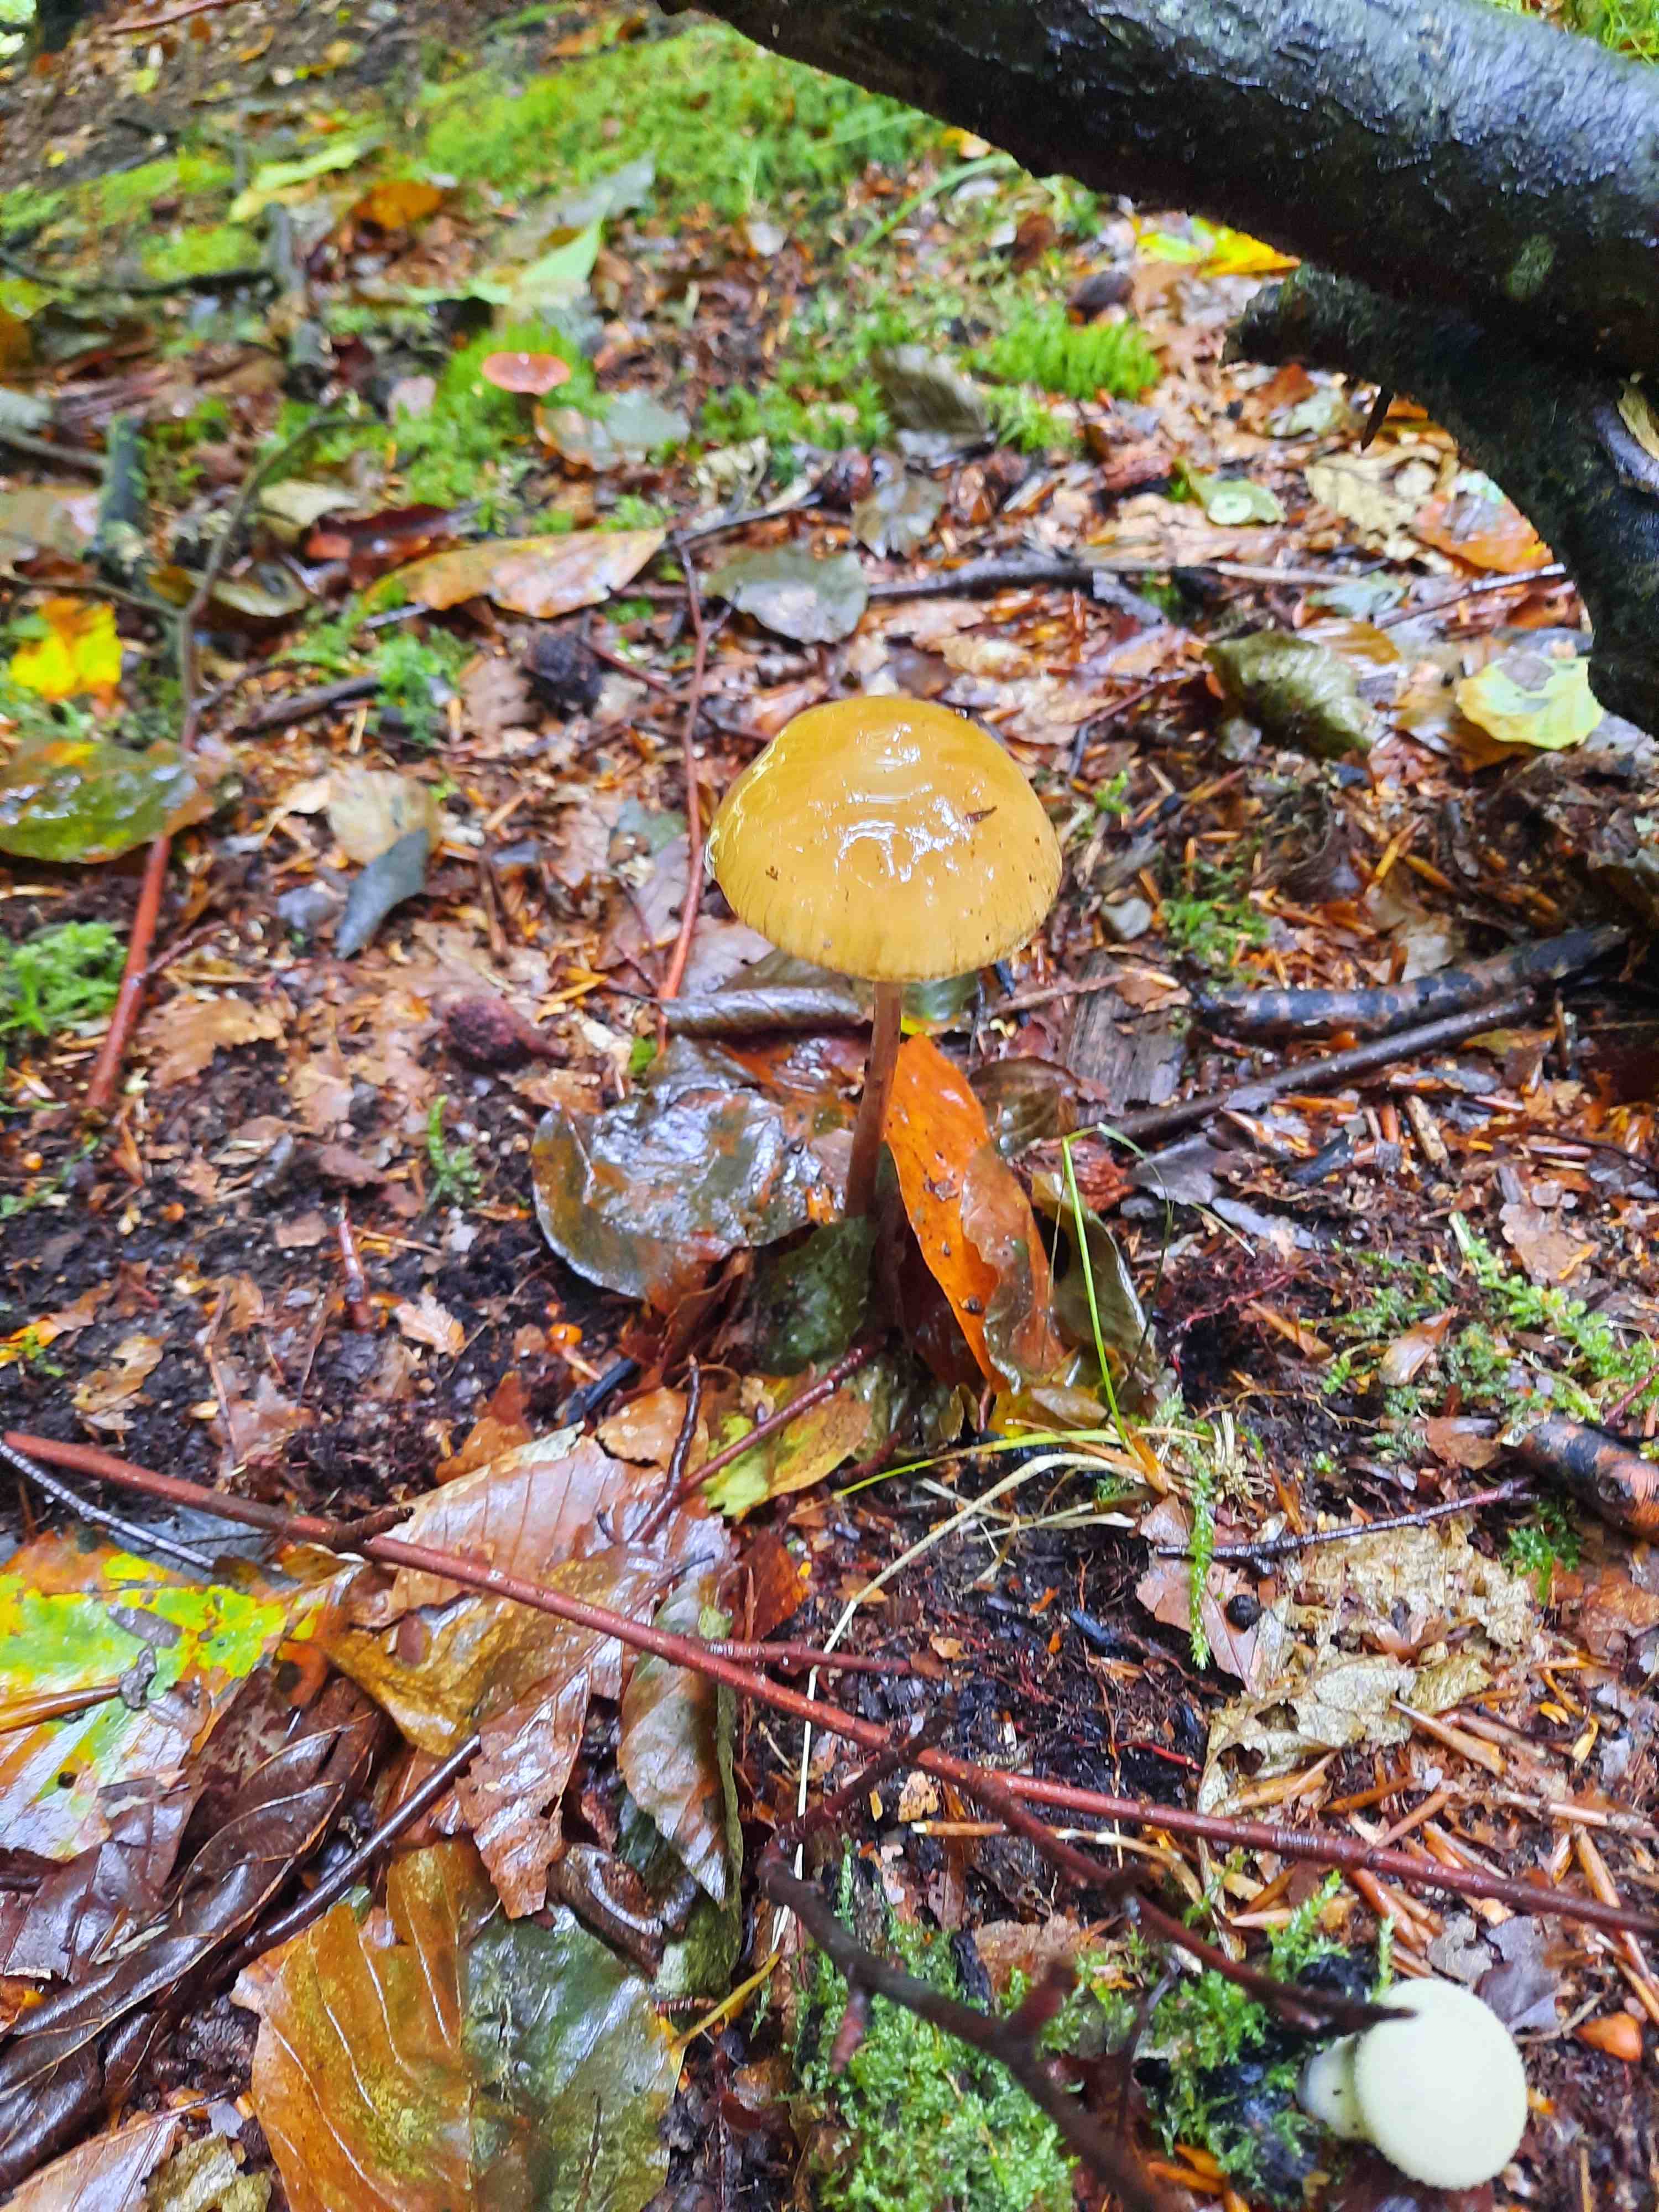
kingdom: Fungi
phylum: Basidiomycota
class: Agaricomycetes
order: Agaricales
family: Physalacriaceae
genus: Hymenopellis
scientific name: Hymenopellis radicata
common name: almindelig pælerodshat
